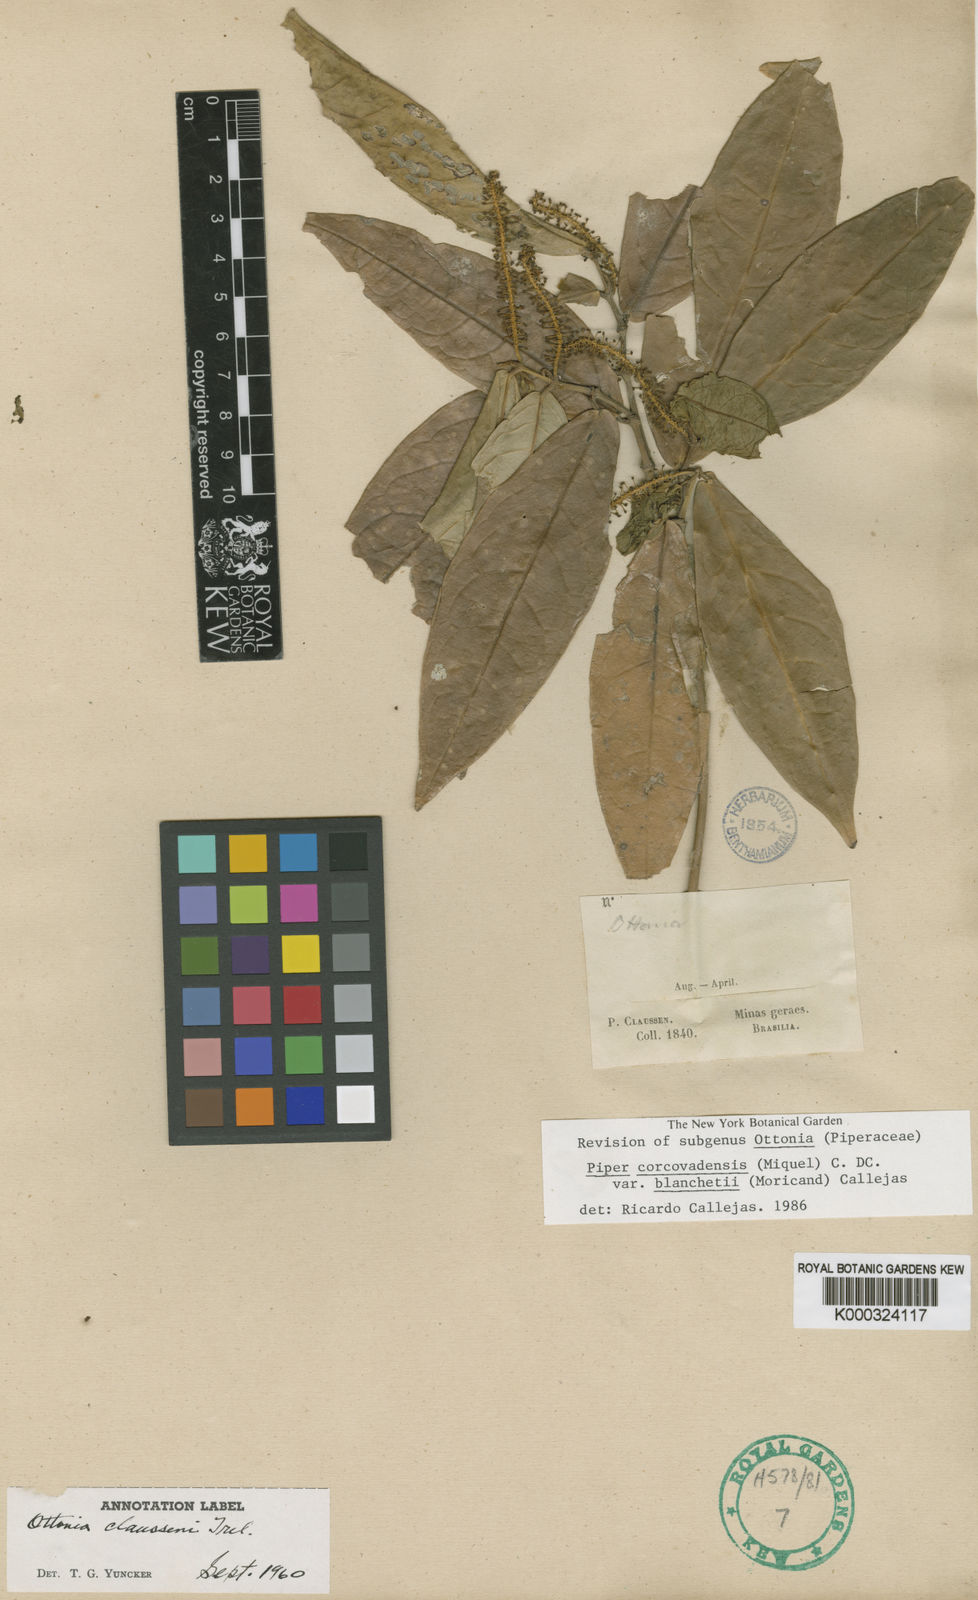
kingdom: Plantae
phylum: Tracheophyta
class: Magnoliopsida
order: Piperales
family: Piperaceae
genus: Piper
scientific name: Piper corcovadense
